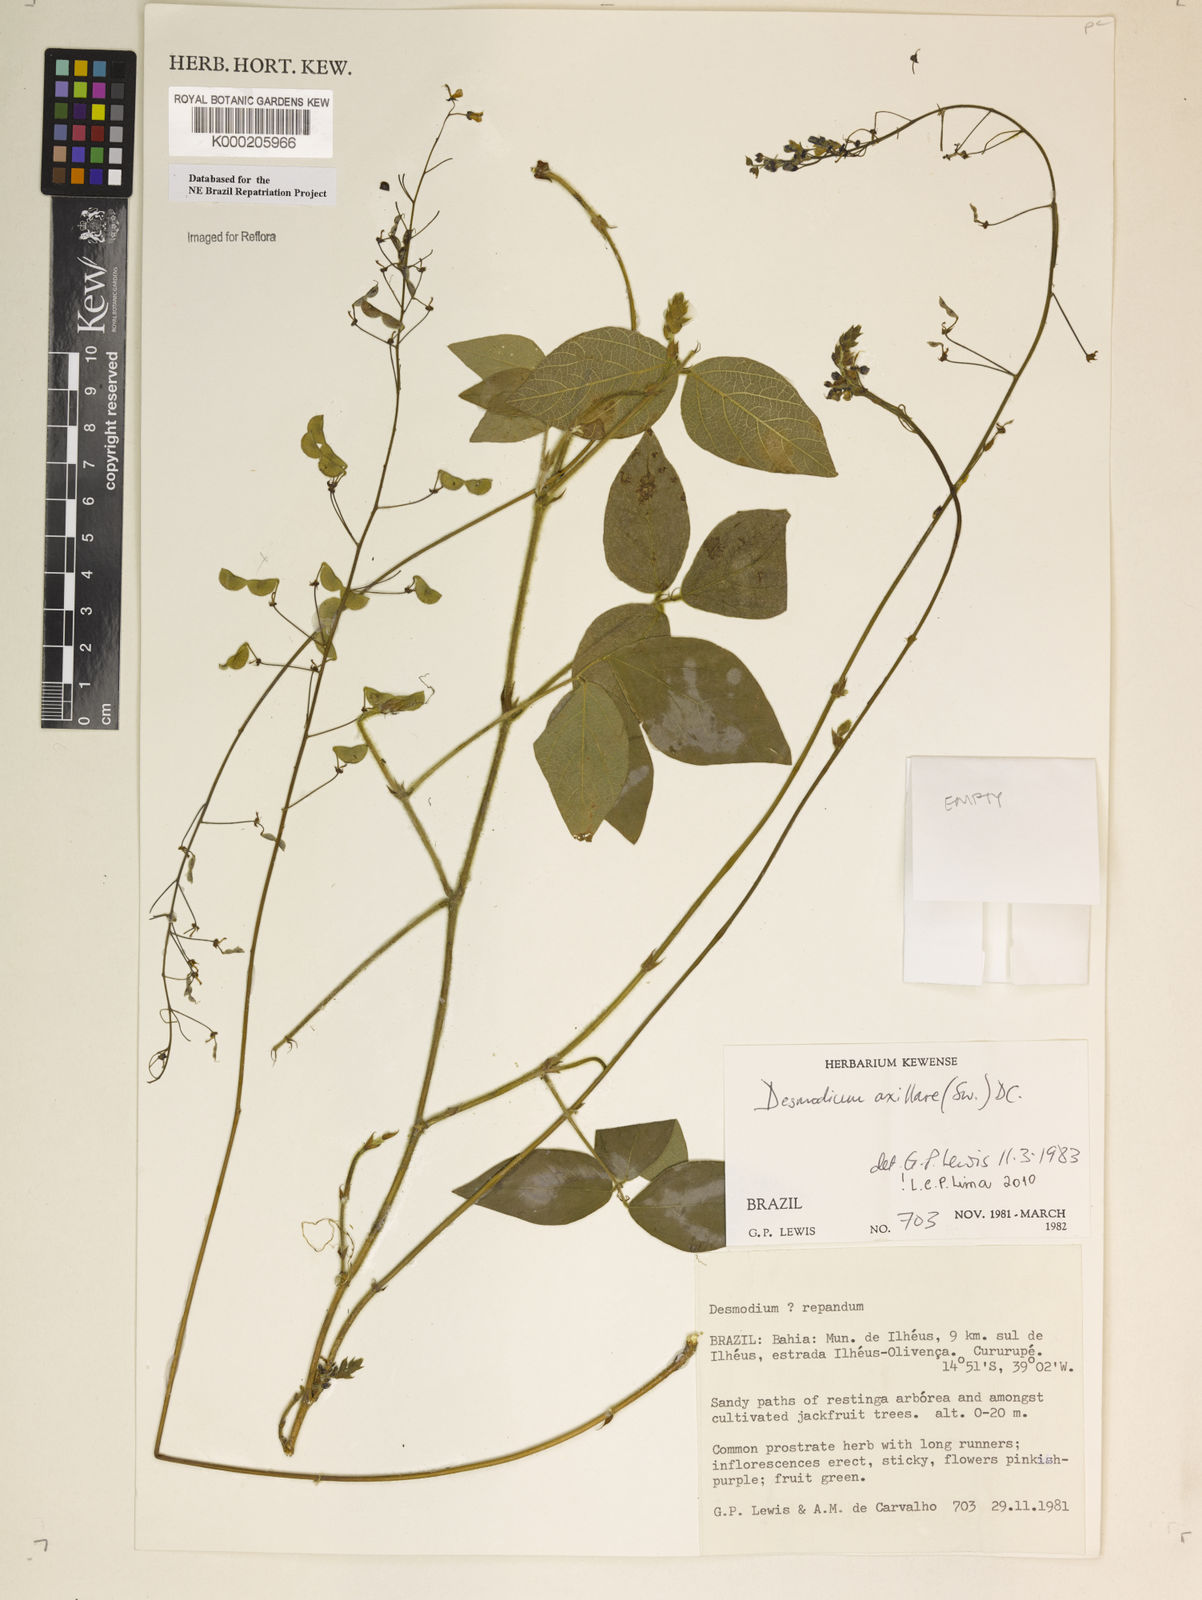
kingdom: Plantae
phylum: Tracheophyta
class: Magnoliopsida
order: Fabales
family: Fabaceae
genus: Desmodium
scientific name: Desmodium axillare
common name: Wire with
